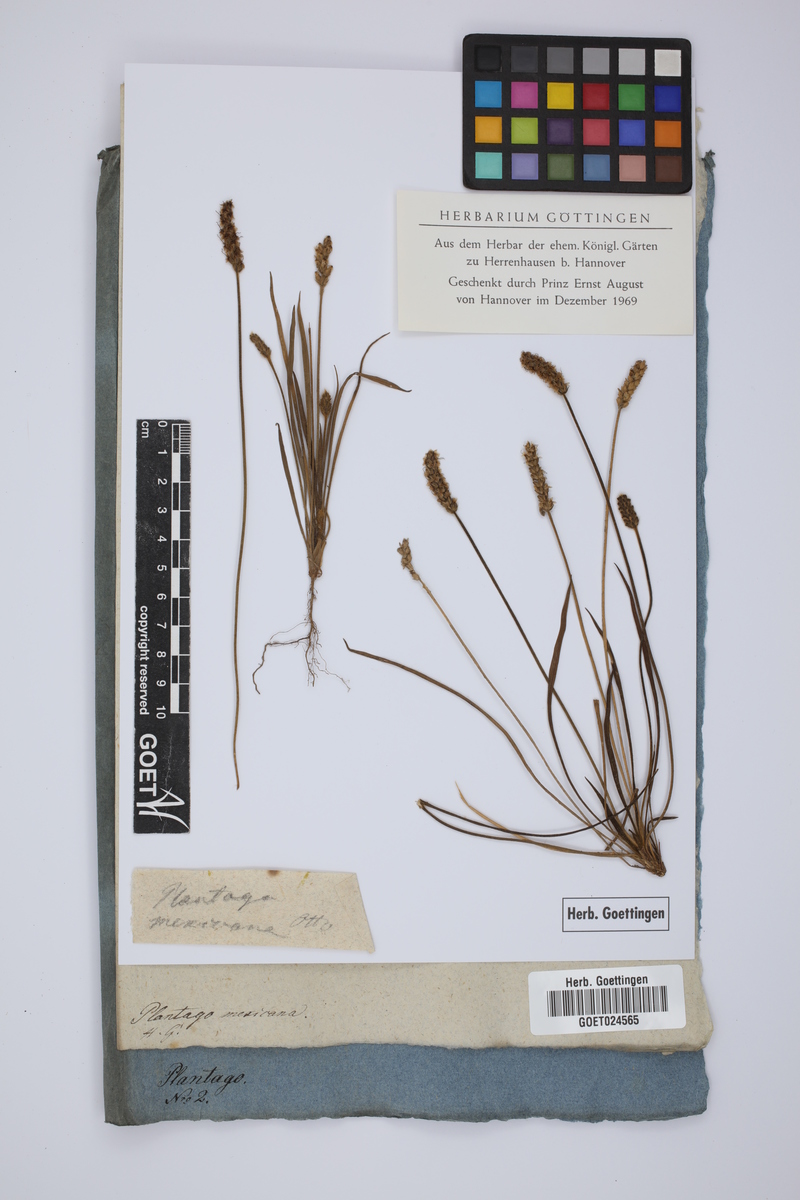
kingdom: Plantae
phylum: Tracheophyta
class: Magnoliopsida
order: Lamiales
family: Plantaginaceae
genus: Plantago
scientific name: Plantago nivea
